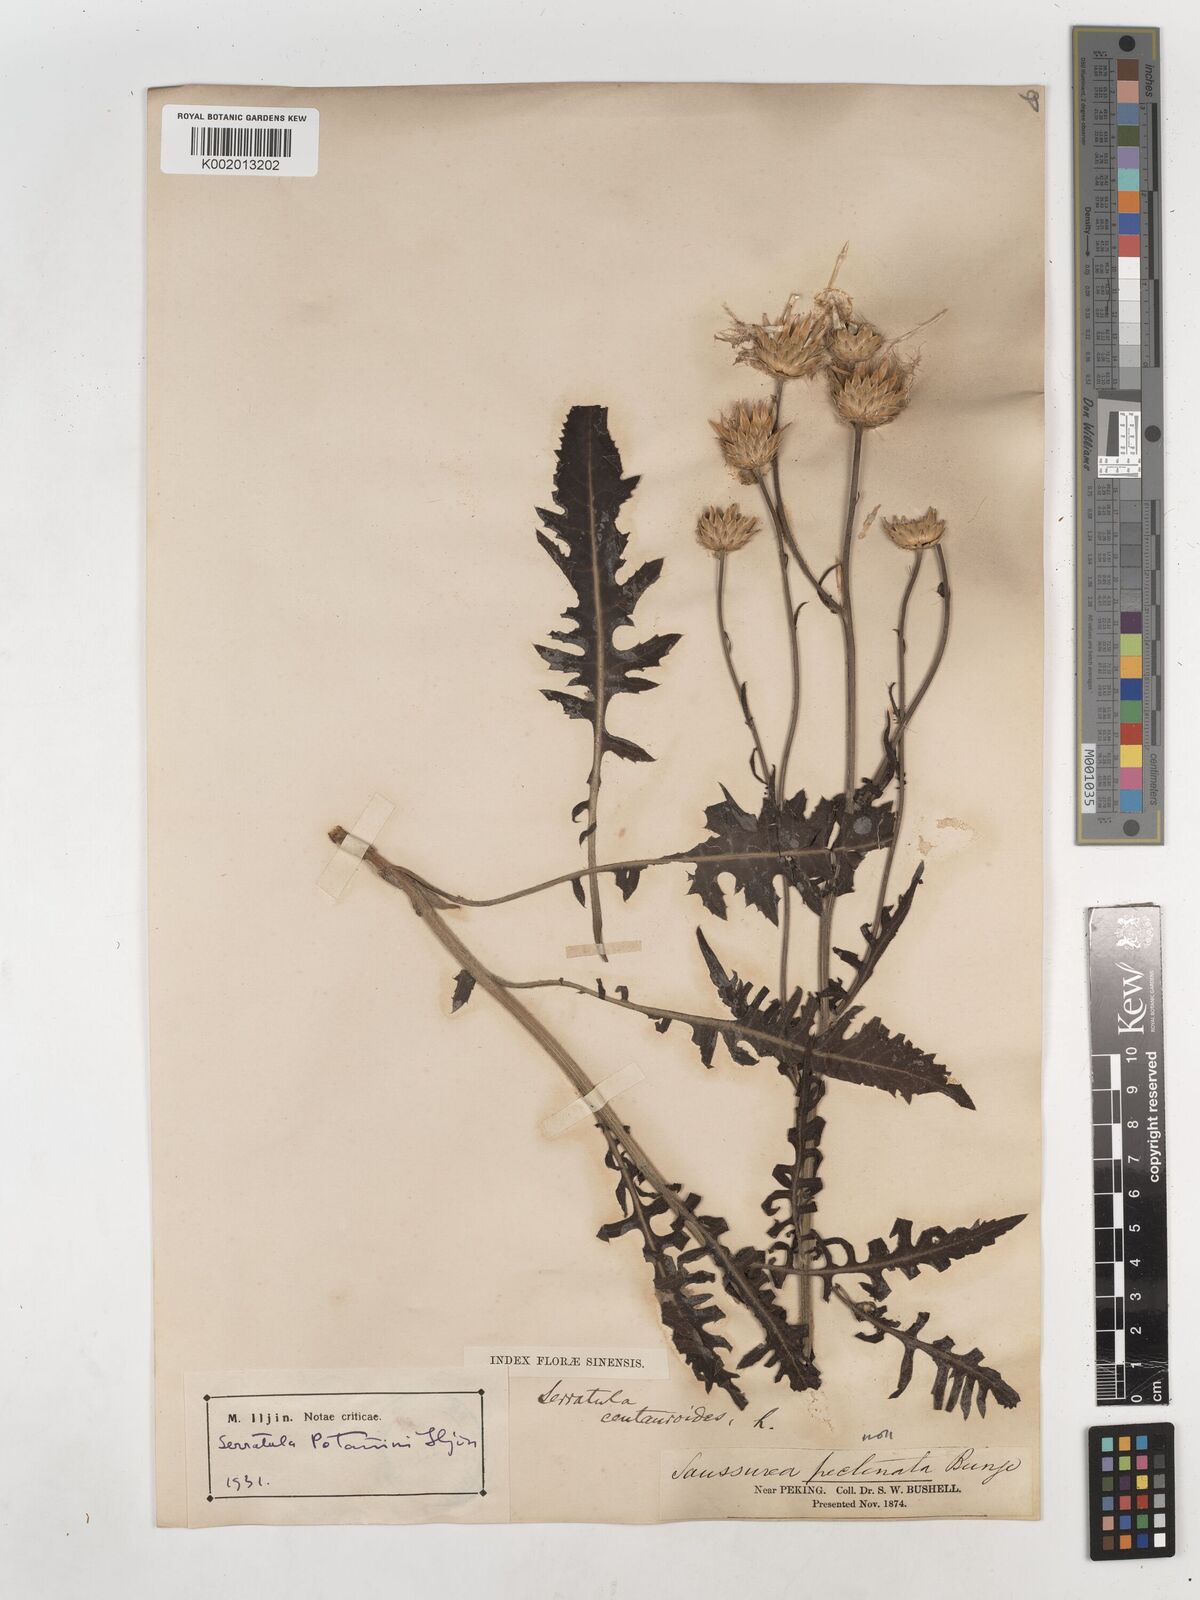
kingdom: Plantae
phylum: Tracheophyta
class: Magnoliopsida
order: Asterales
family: Asteraceae
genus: Klasea
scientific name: Klasea centauroides
